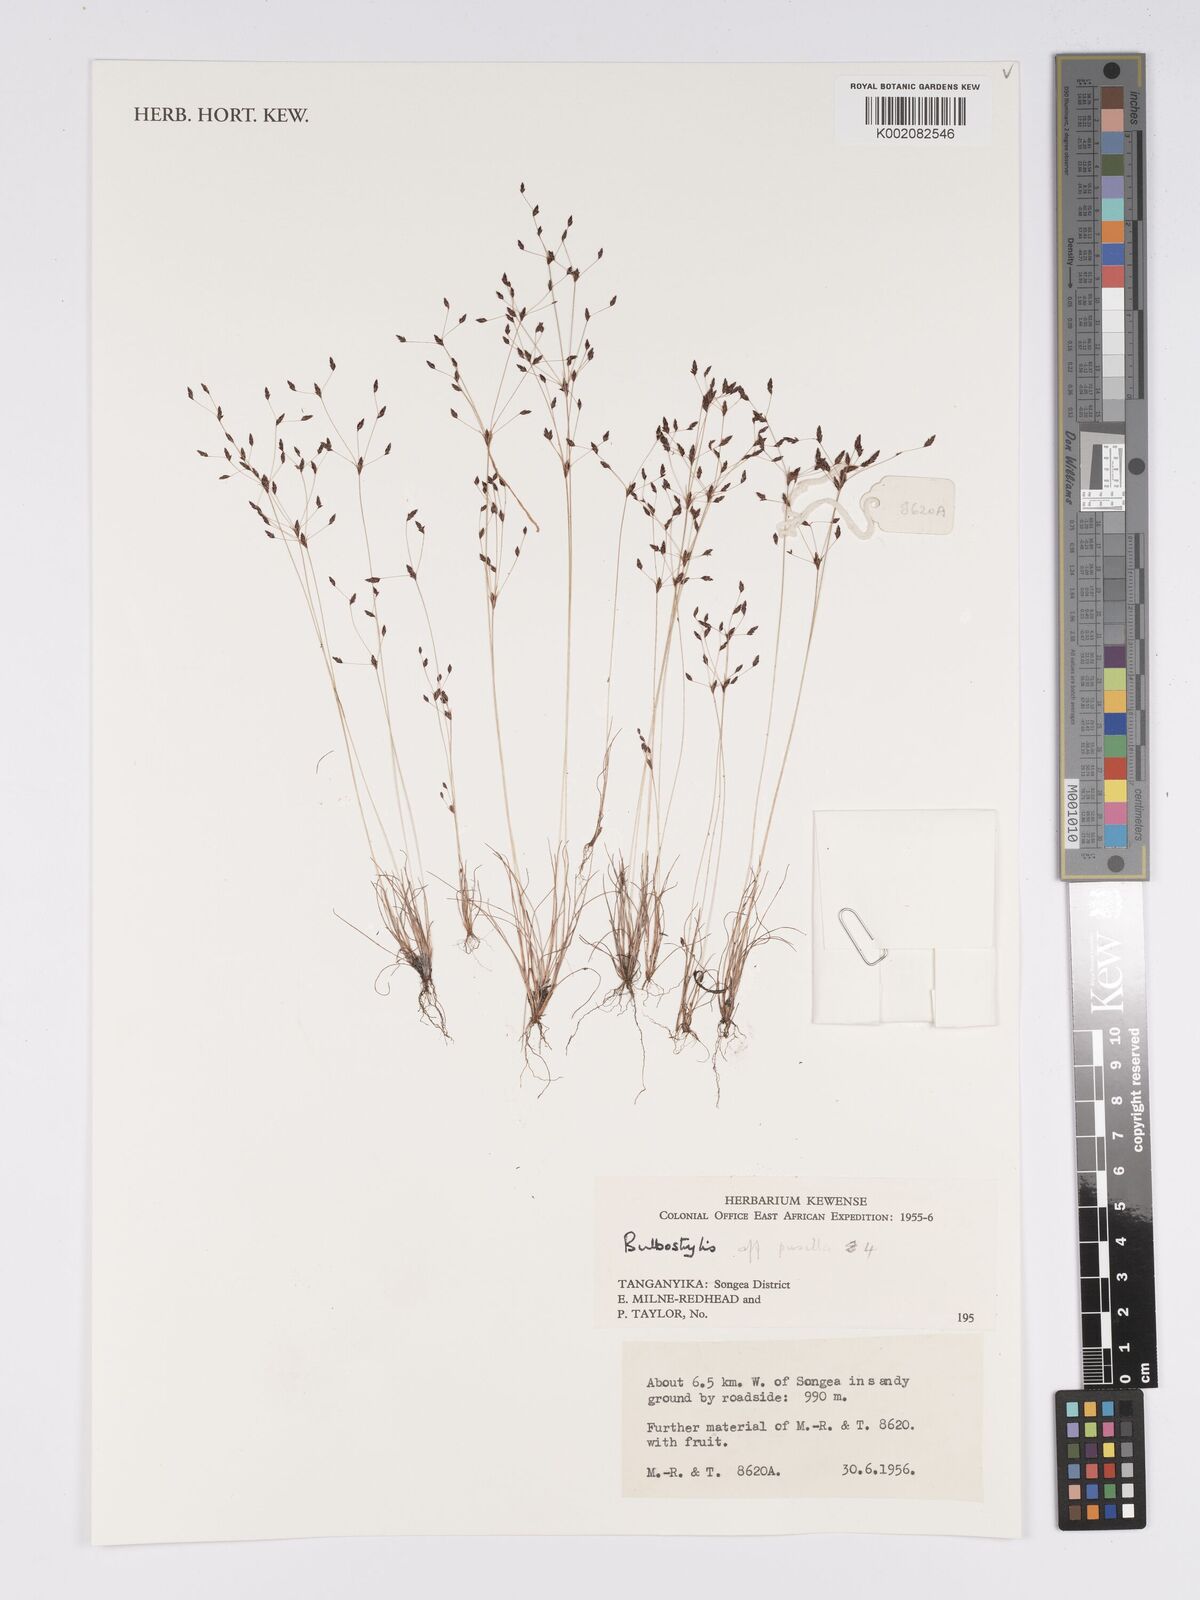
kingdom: Plantae
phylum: Tracheophyta
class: Liliopsida
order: Poales
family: Cyperaceae
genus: Bulbostylis
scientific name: Bulbostylis pusilla
